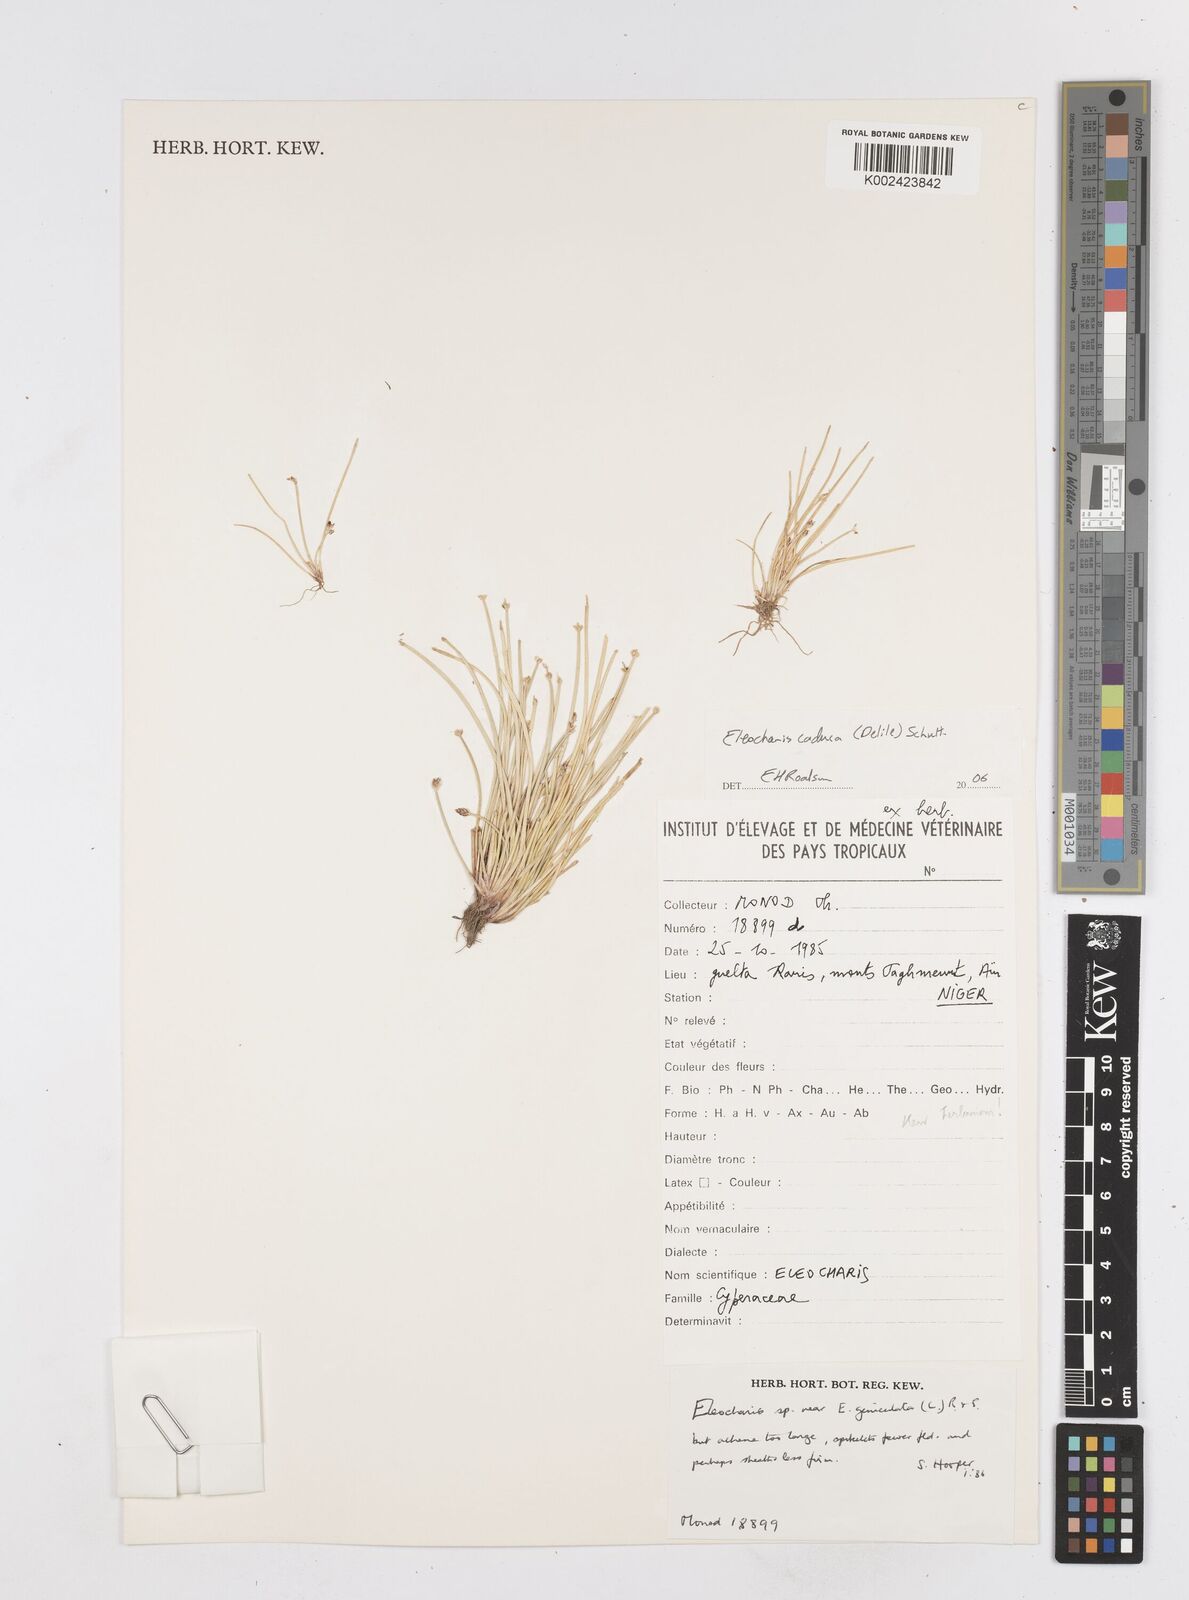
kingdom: Plantae
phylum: Tracheophyta
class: Liliopsida
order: Poales
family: Cyperaceae
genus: Eleocharis
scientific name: Eleocharis geniculata
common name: Canada spikesedge
